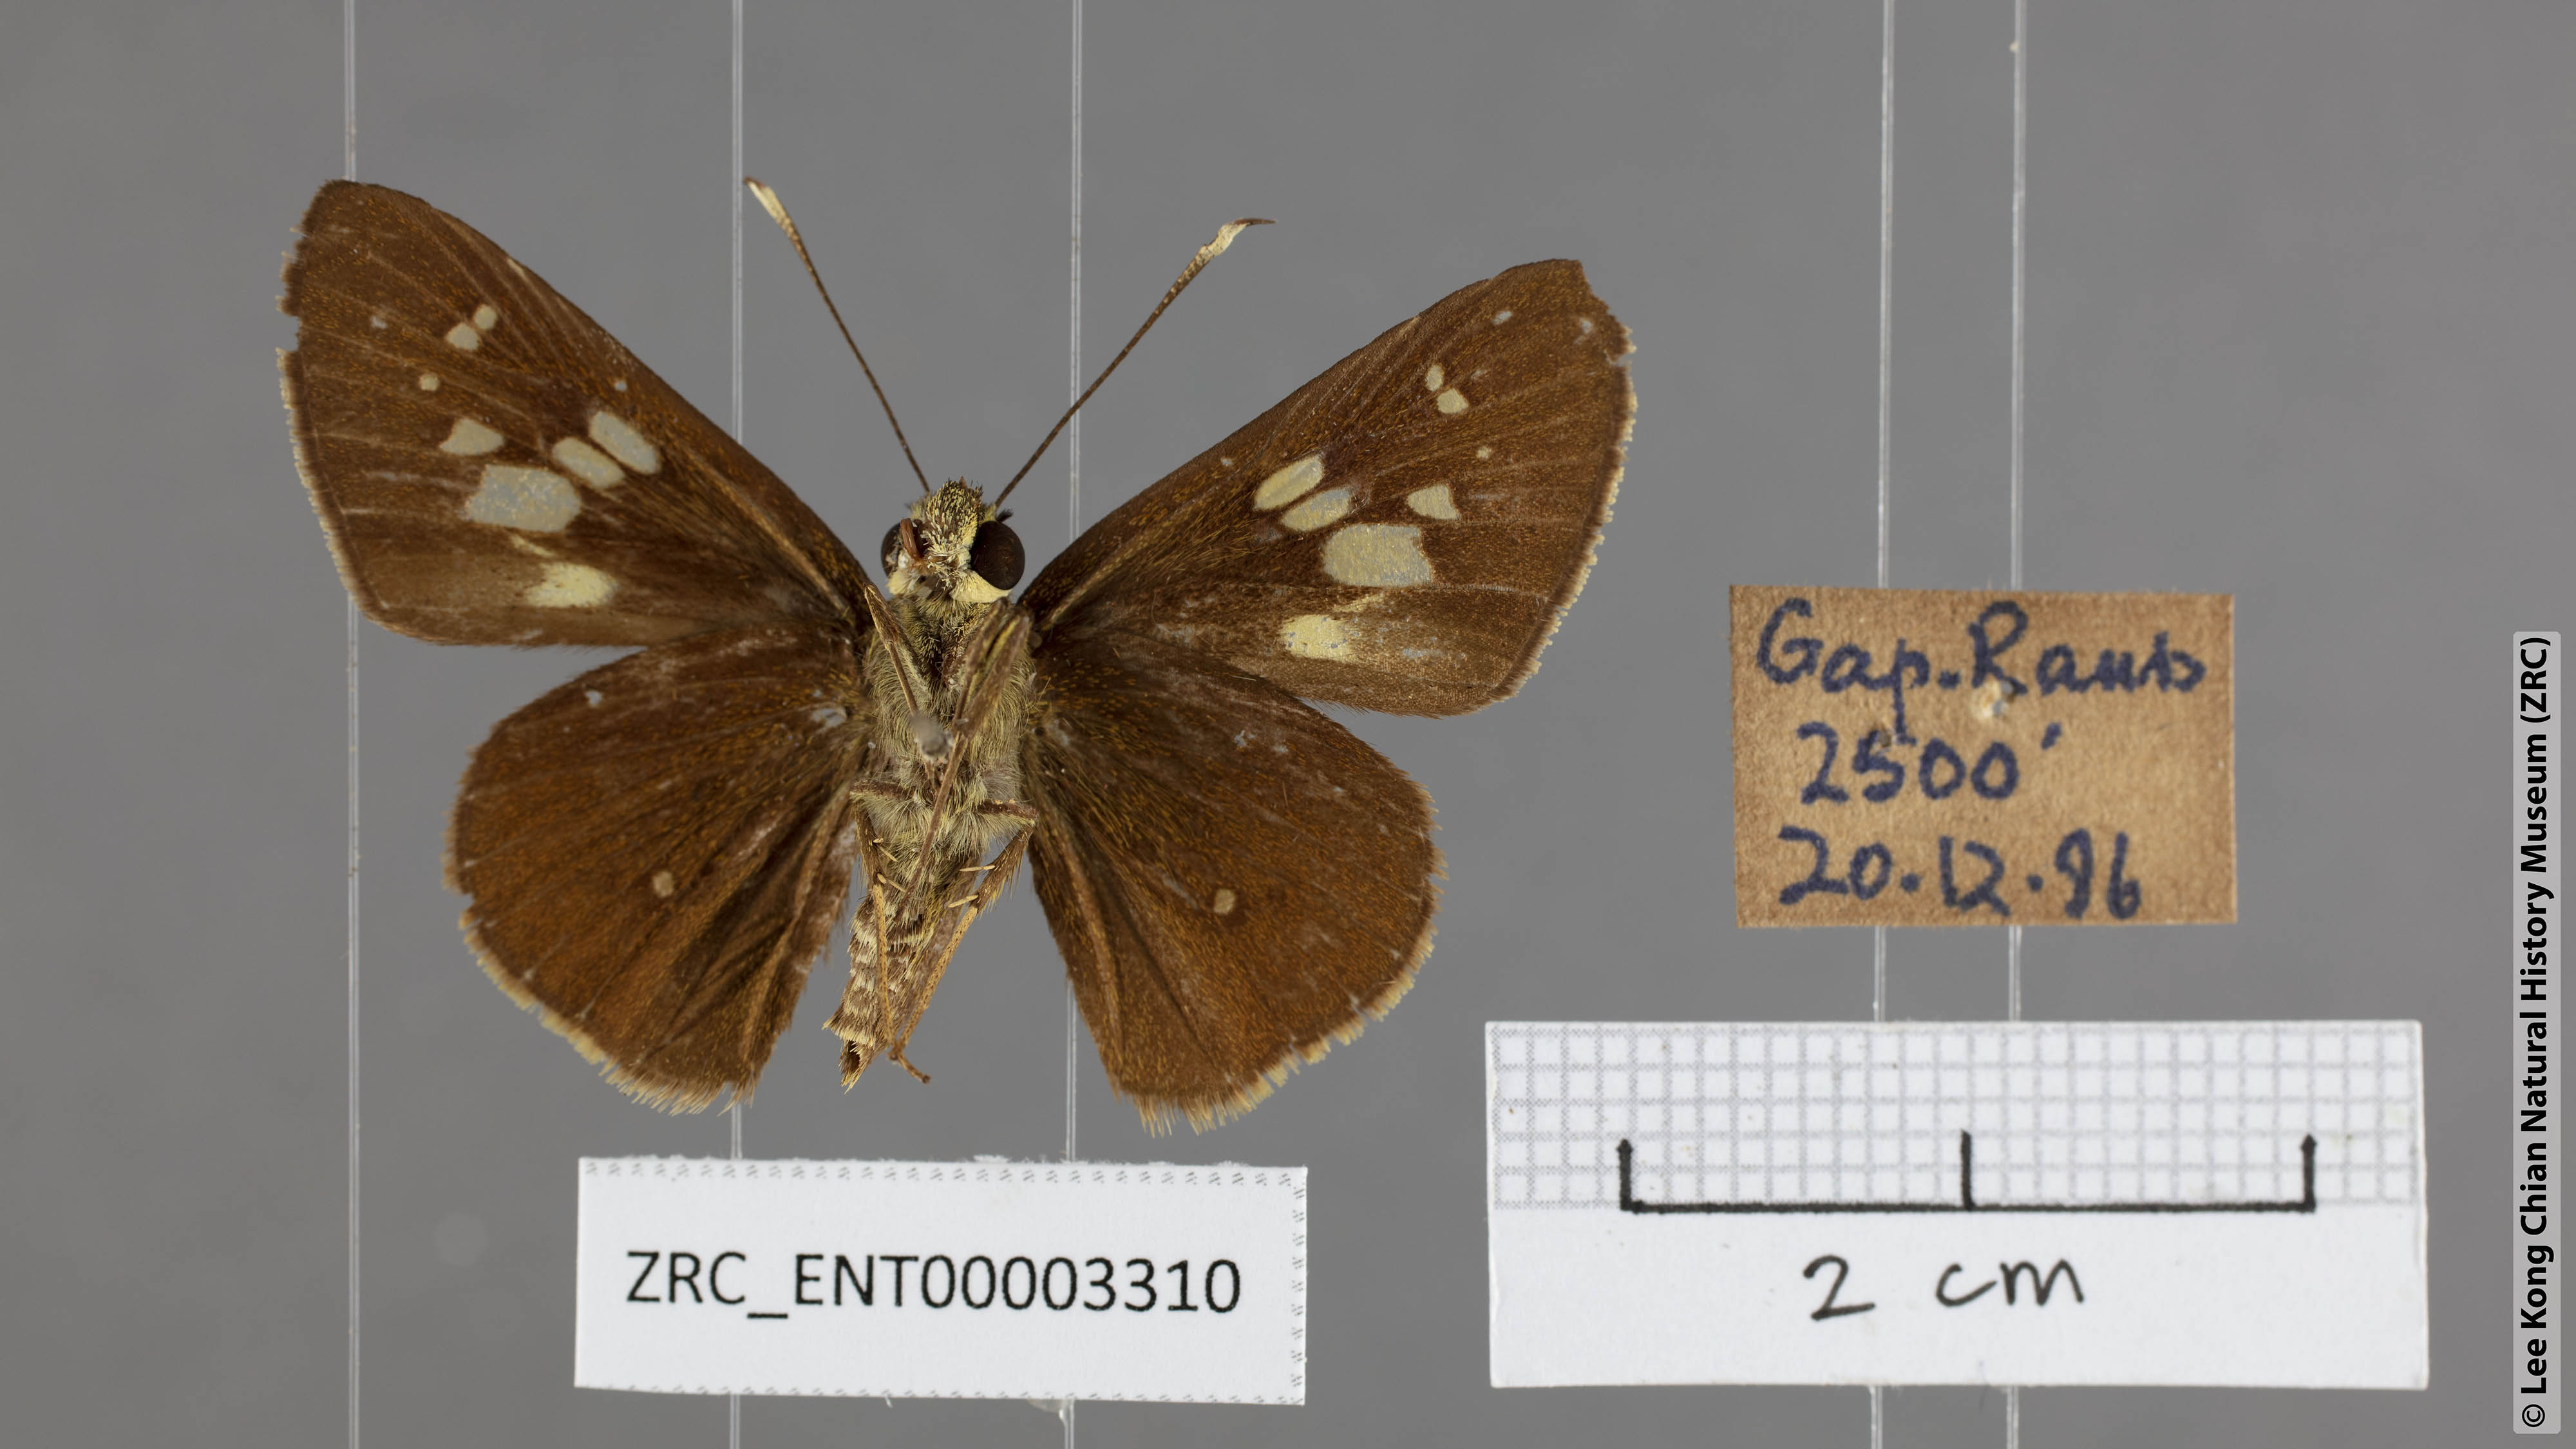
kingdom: Animalia
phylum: Arthropoda
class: Insecta
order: Lepidoptera
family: Hesperiidae
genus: Isma
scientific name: Isma guttulifera
